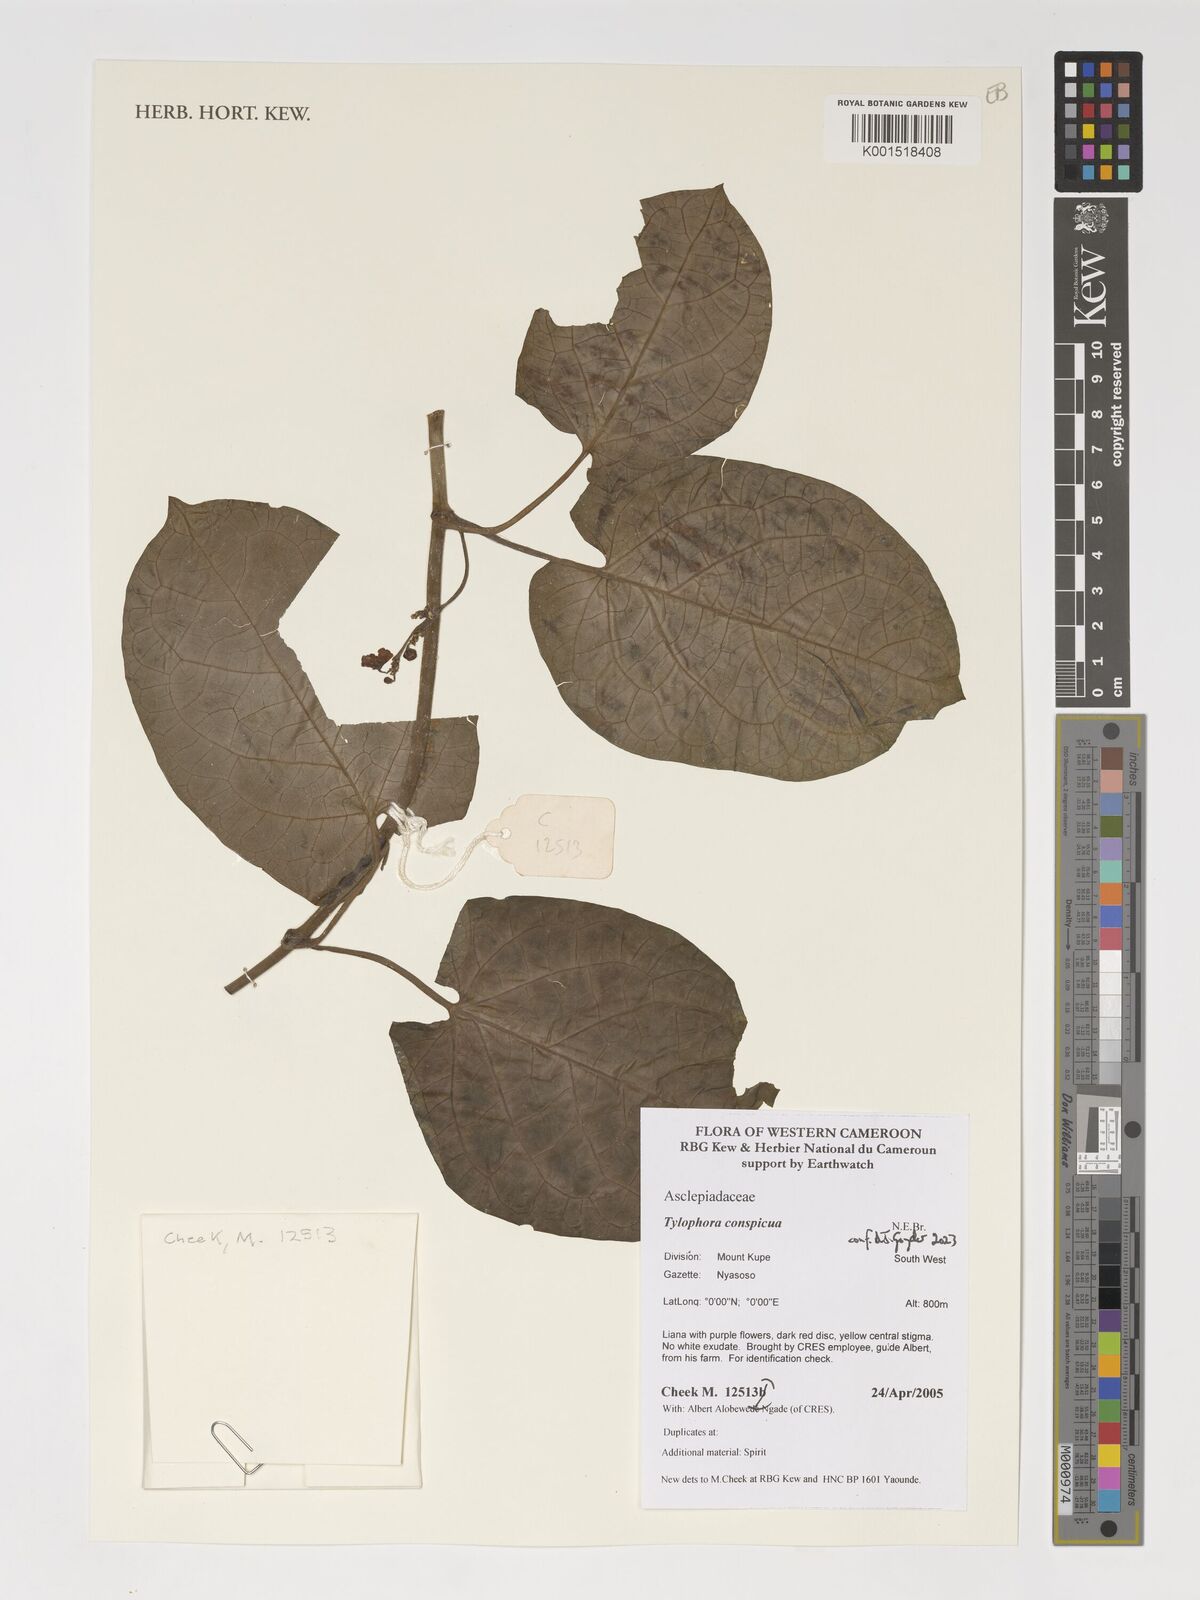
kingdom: Plantae
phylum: Tracheophyta
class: Magnoliopsida
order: Gentianales
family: Apocynaceae
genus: Vincetoxicum
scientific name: Vincetoxicum conspicuum
